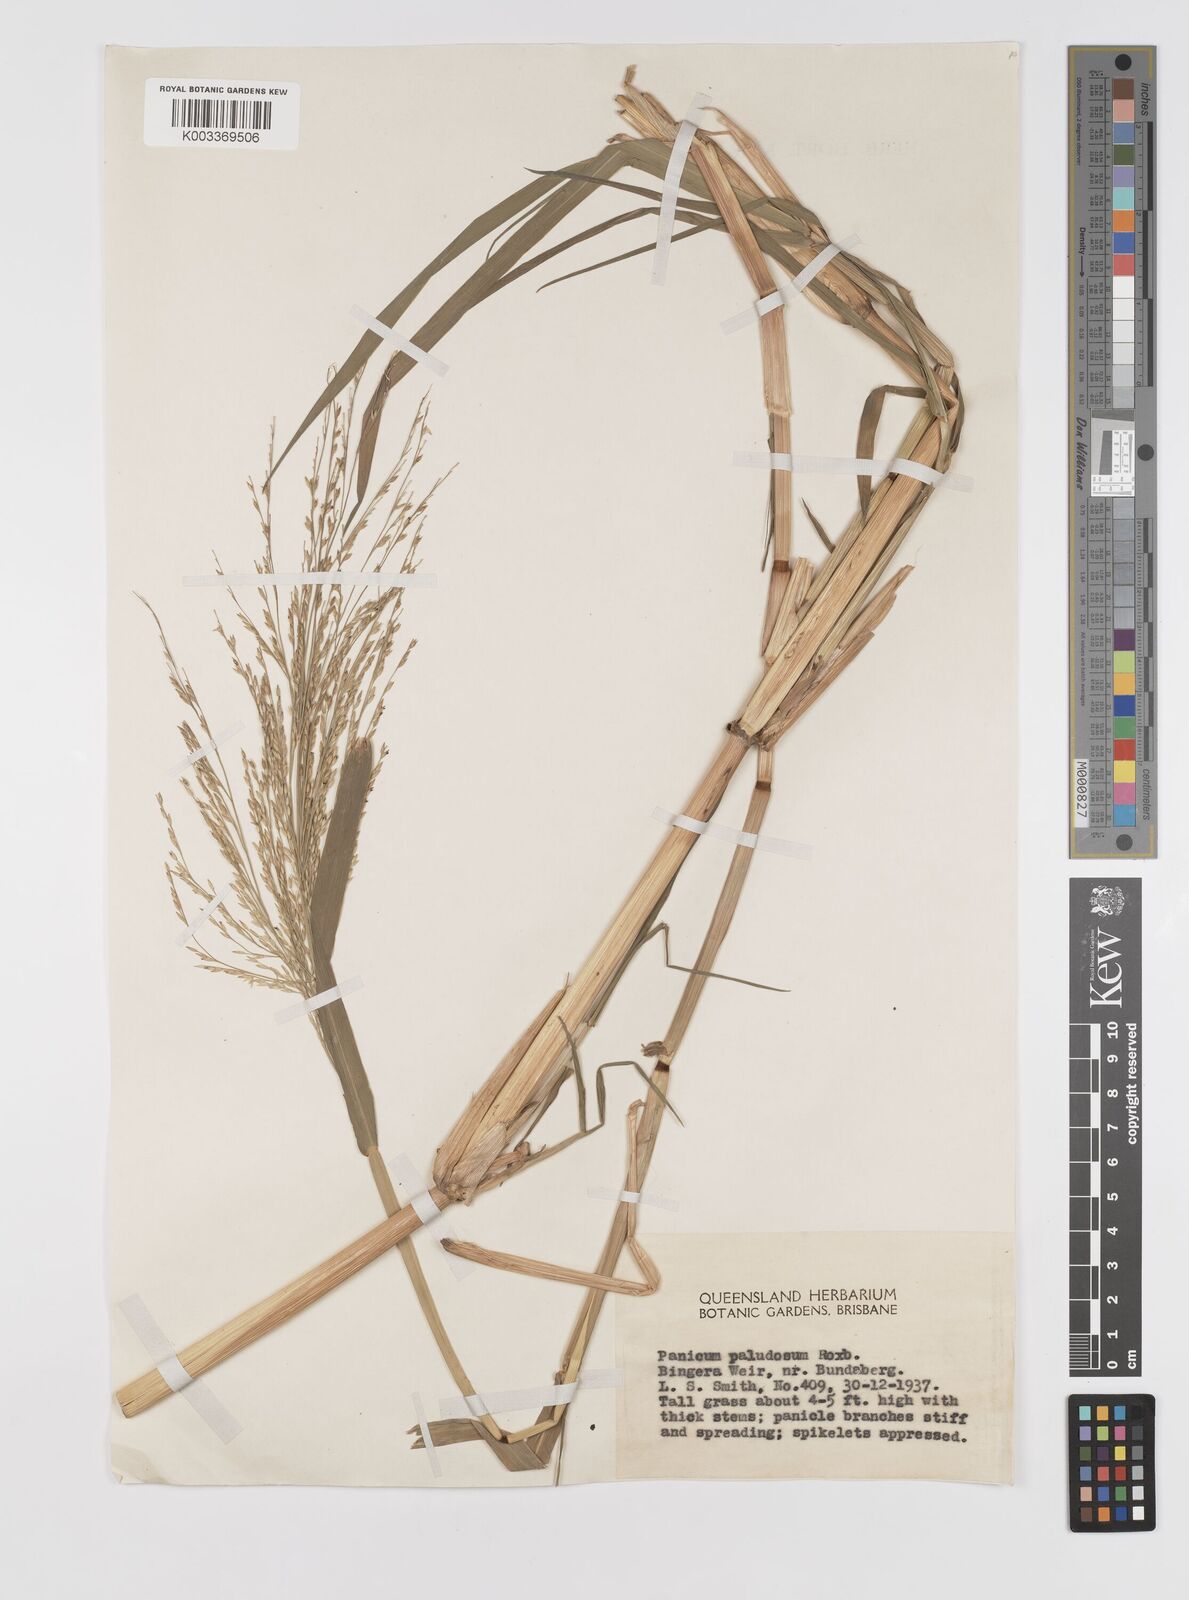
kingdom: Plantae
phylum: Tracheophyta
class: Liliopsida
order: Poales
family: Poaceae
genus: Louisiella
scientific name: Louisiella paludosa
